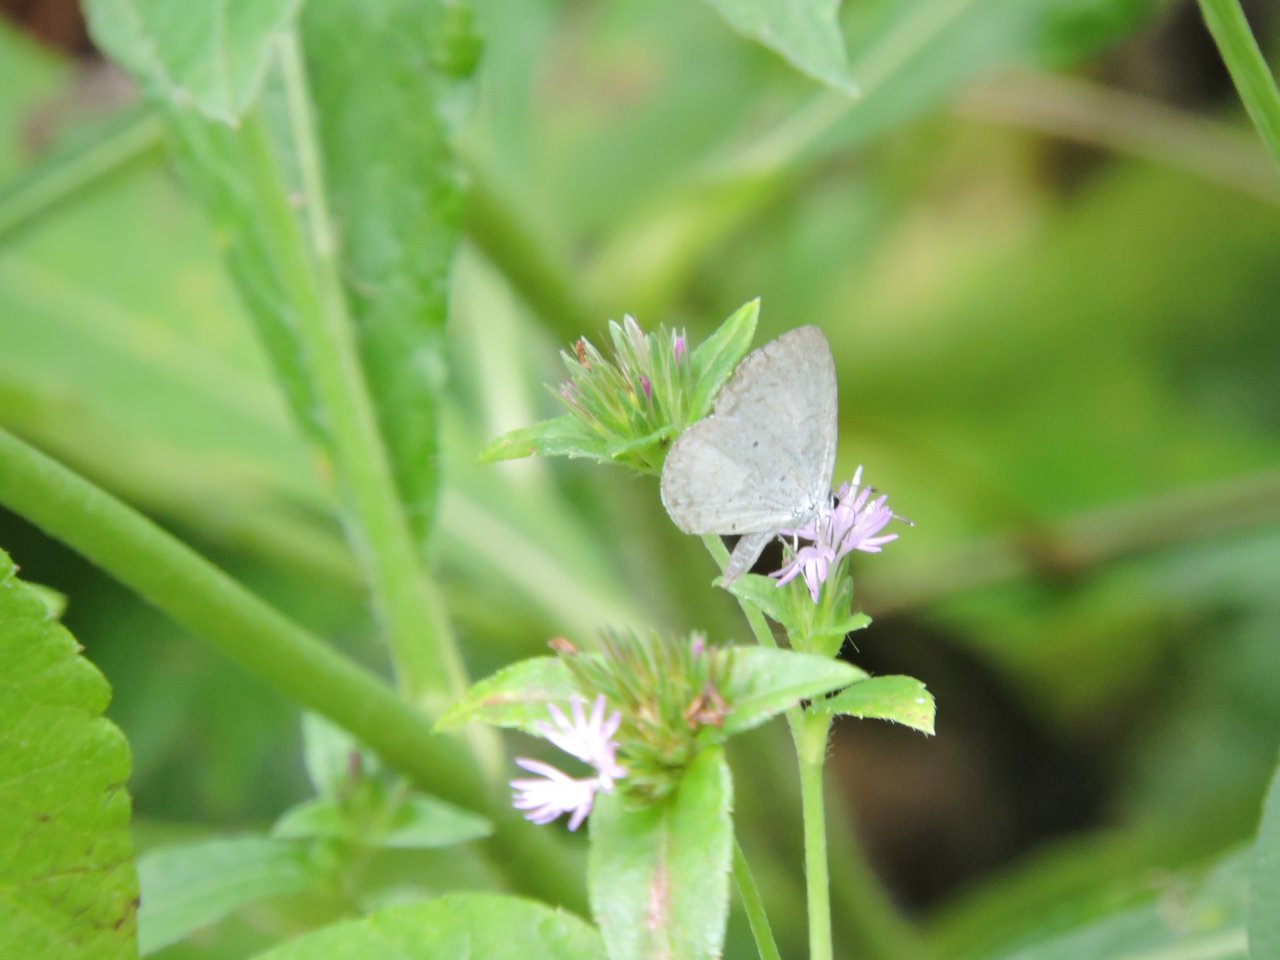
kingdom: Animalia
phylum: Arthropoda
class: Insecta
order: Lepidoptera
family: Lycaenidae
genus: Cyaniris
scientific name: Cyaniris neglecta
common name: Summer Azure
